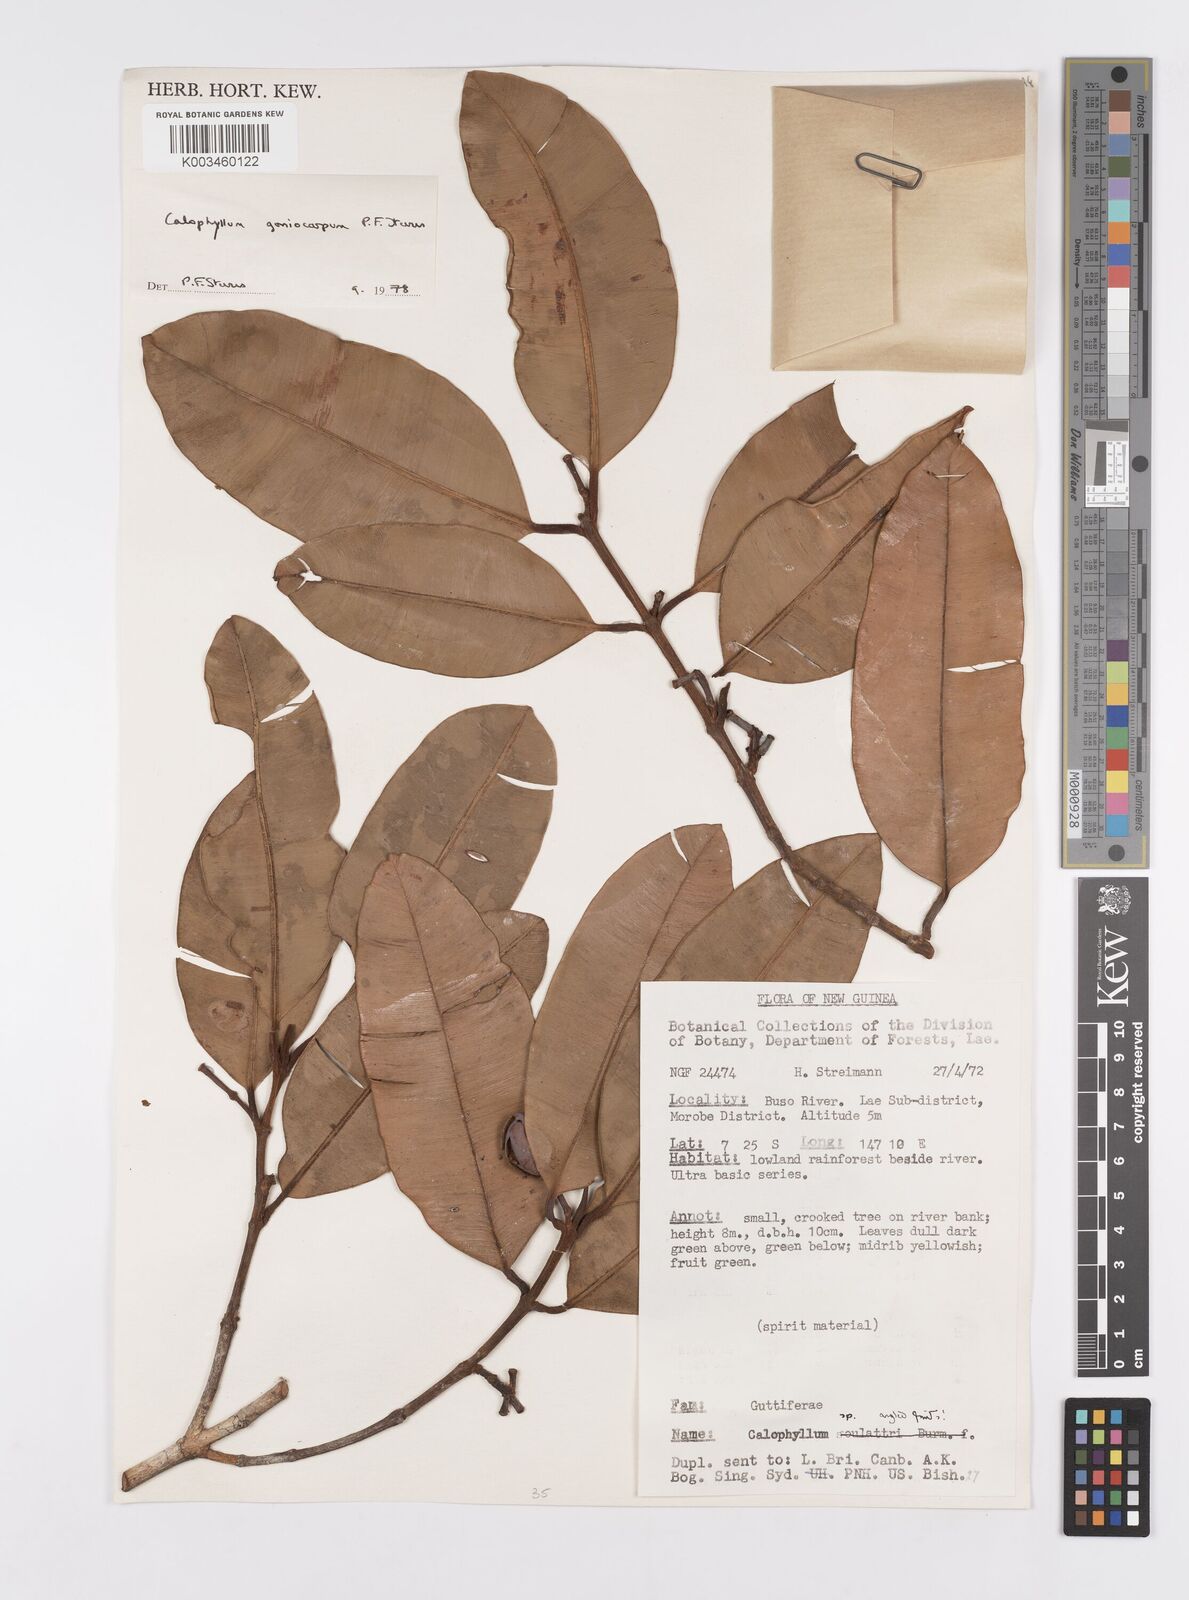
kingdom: Plantae
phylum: Tracheophyta
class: Magnoliopsida
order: Malpighiales
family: Calophyllaceae
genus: Calophyllum
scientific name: Calophyllum goniocarpum
